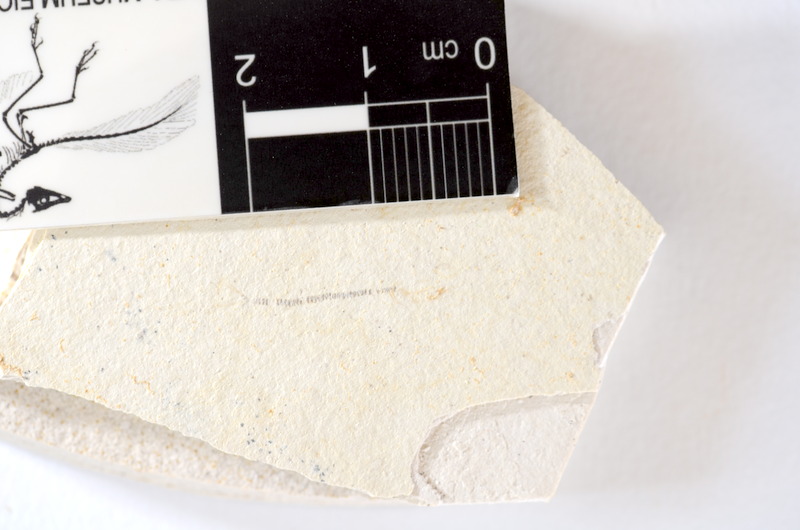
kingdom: Animalia
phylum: Chordata
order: Salmoniformes
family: Orthogonikleithridae
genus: Orthogonikleithrus
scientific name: Orthogonikleithrus hoelli
